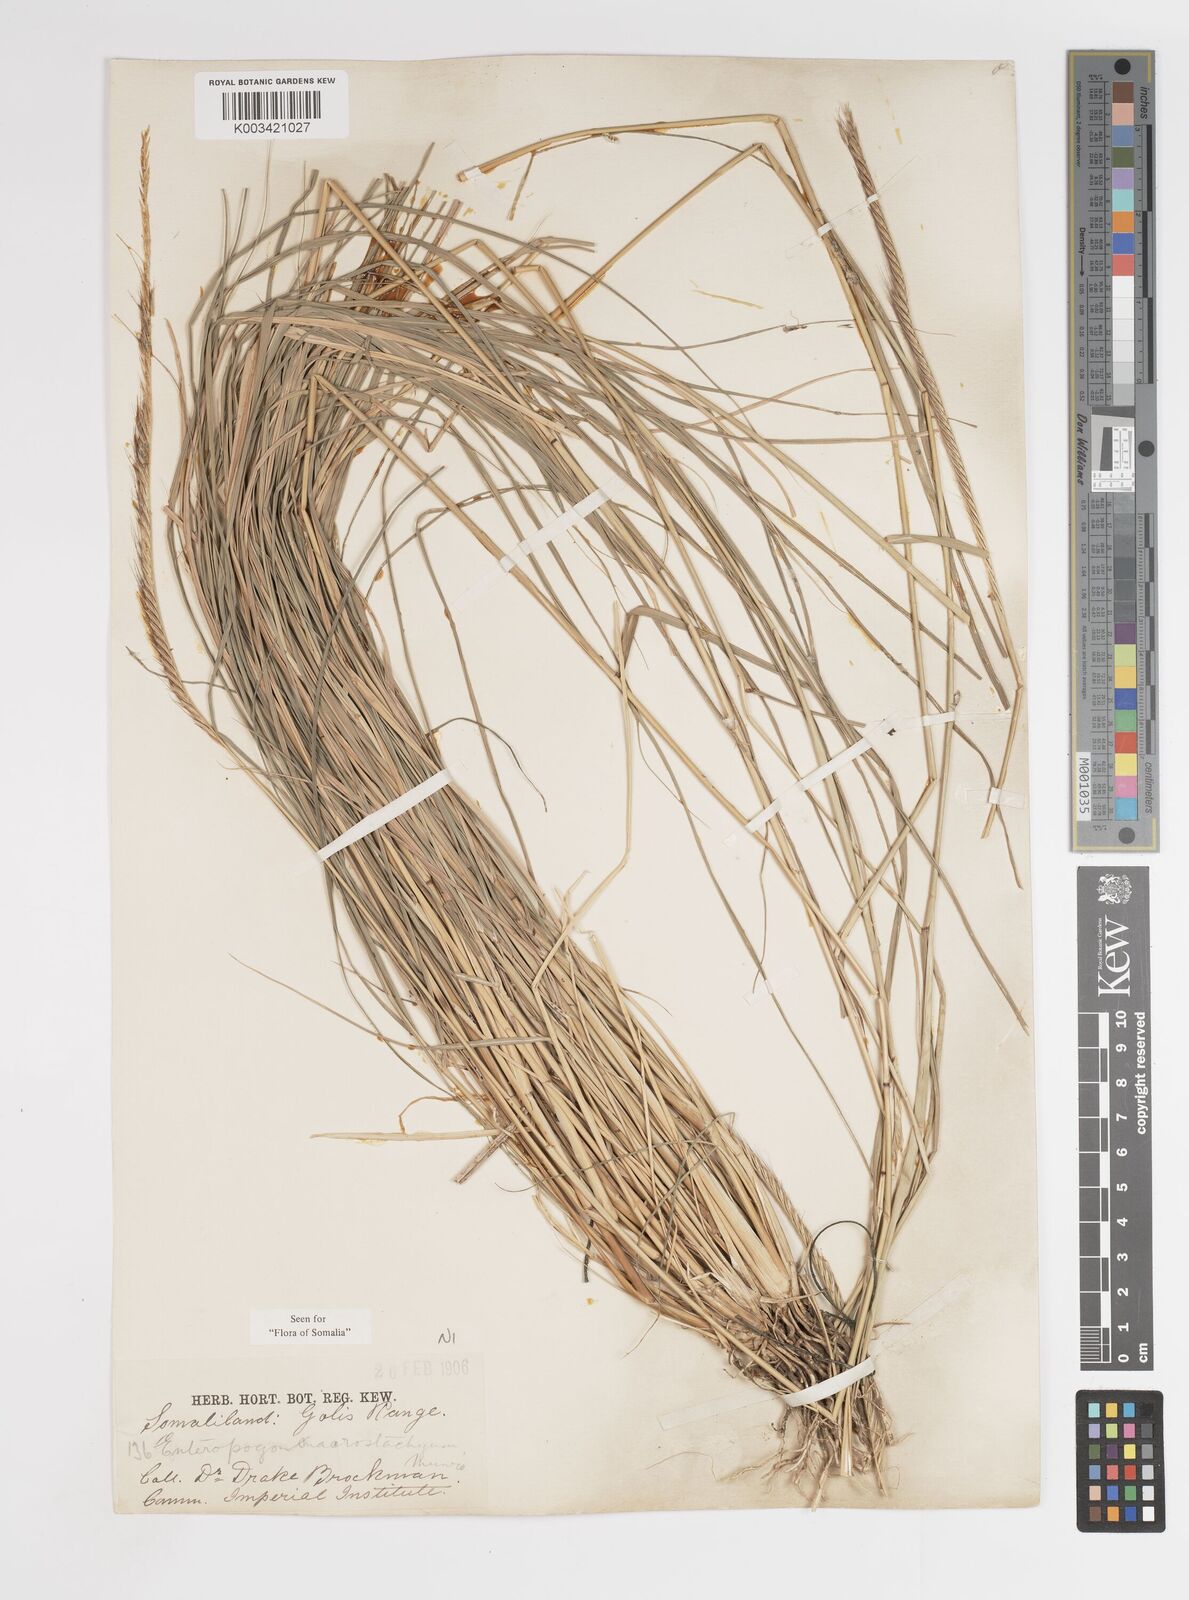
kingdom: Plantae
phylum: Tracheophyta
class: Liliopsida
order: Poales
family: Poaceae
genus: Enteropogon
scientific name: Enteropogon macrostachyus
